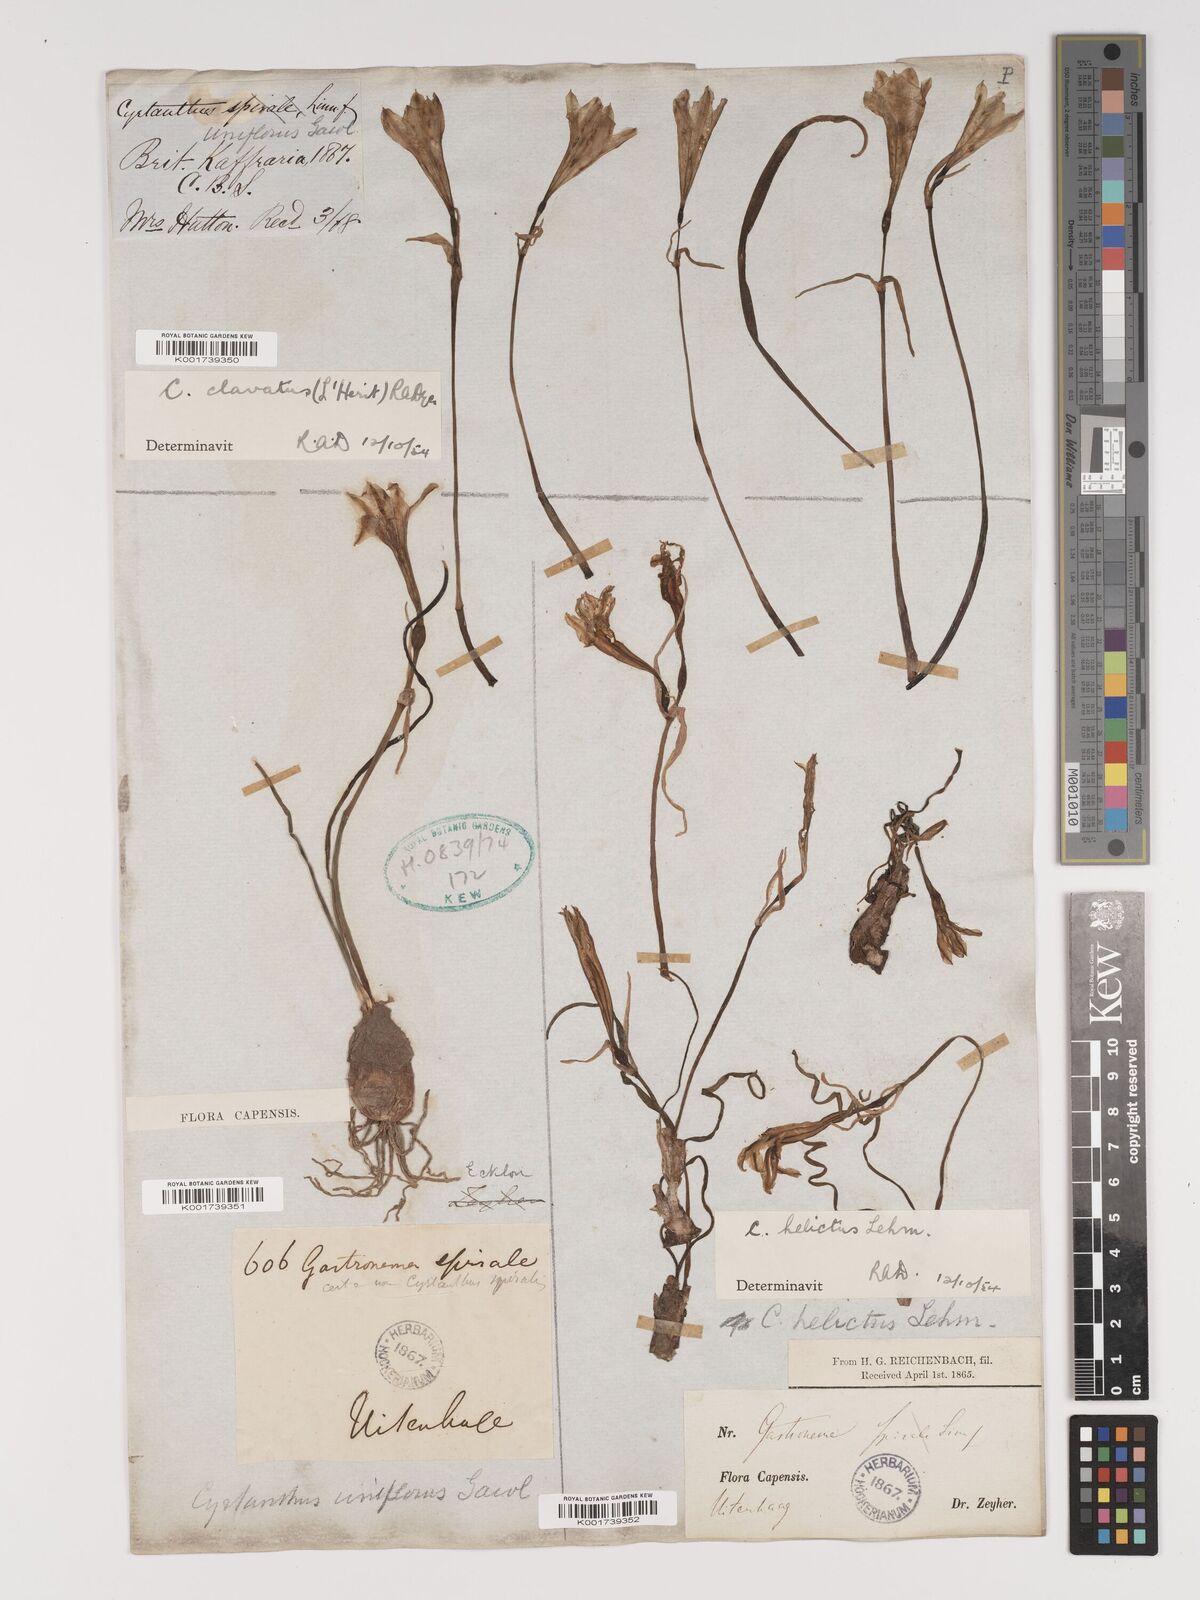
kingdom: Plantae
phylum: Tracheophyta
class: Liliopsida
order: Asparagales
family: Amaryllidaceae
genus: Cyrtanthus
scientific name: Cyrtanthus clavatus
